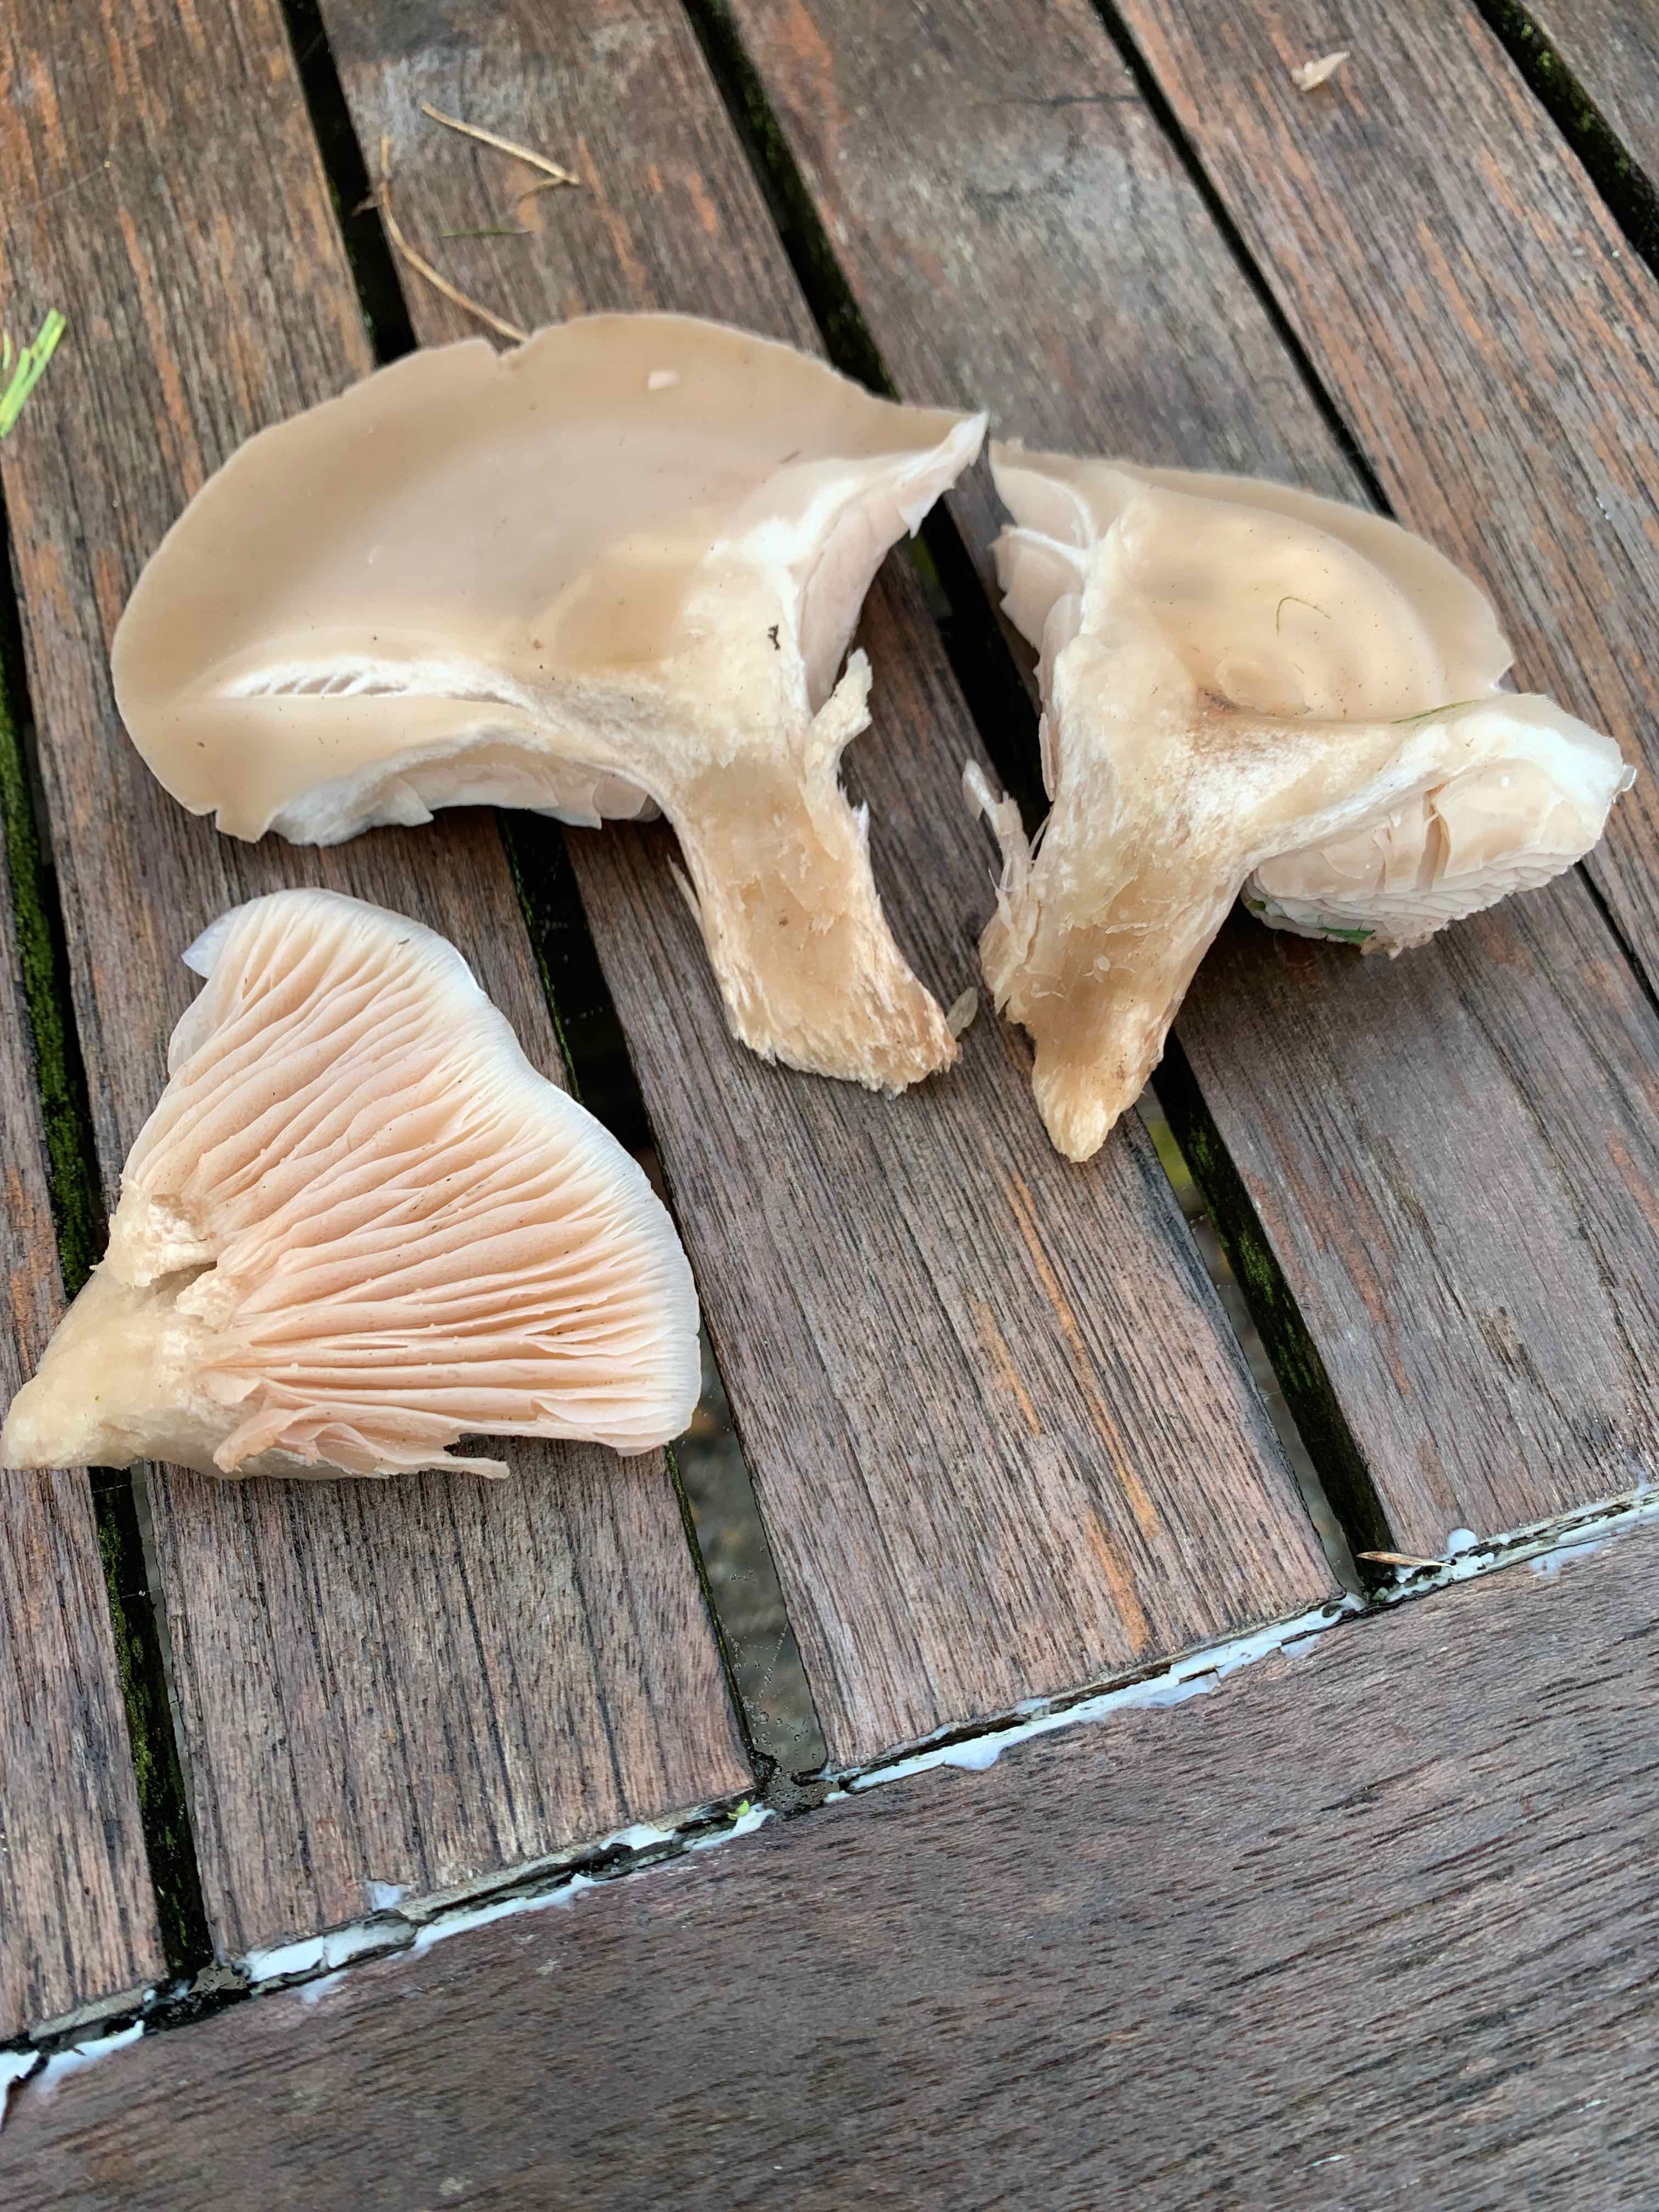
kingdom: Fungi
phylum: Basidiomycota
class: Agaricomycetes
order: Agaricales
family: Tricholomataceae
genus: Lepista
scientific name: Lepista personata
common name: bleg hekseringshat
